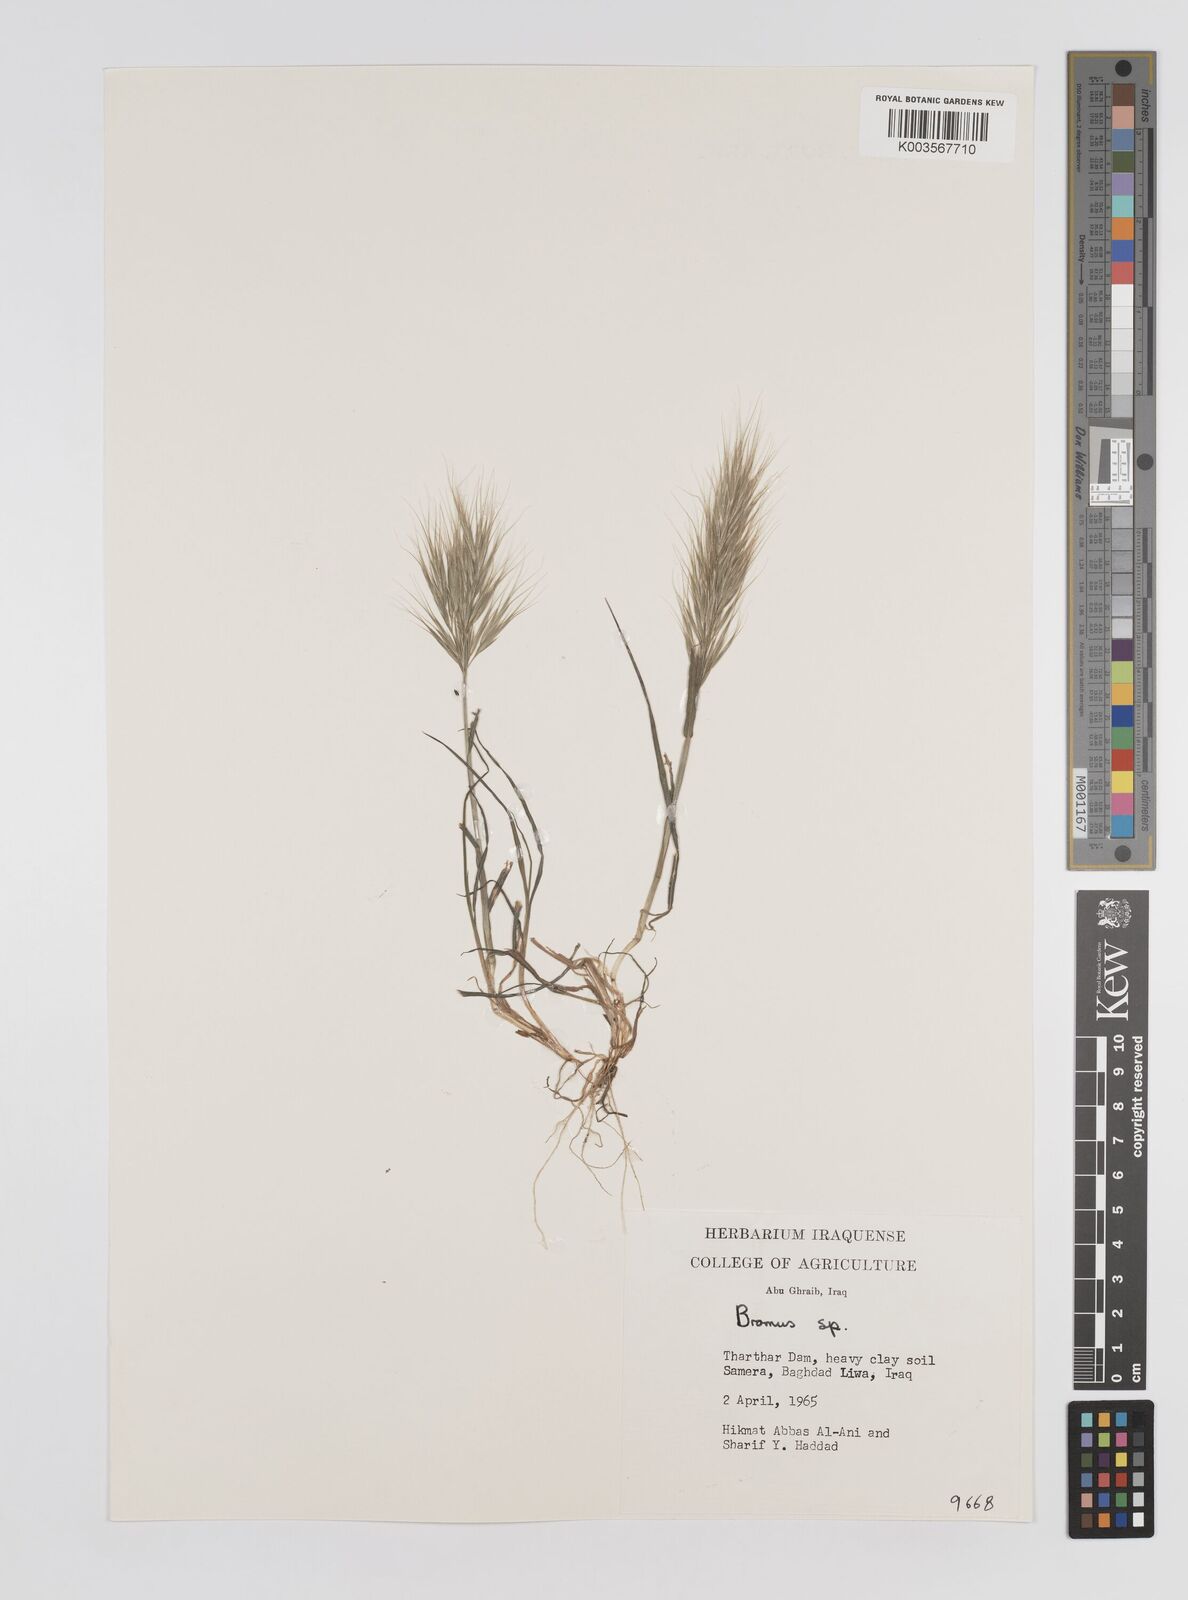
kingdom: Plantae
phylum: Tracheophyta
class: Liliopsida
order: Poales
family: Poaceae
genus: Bromus
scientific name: Bromus
